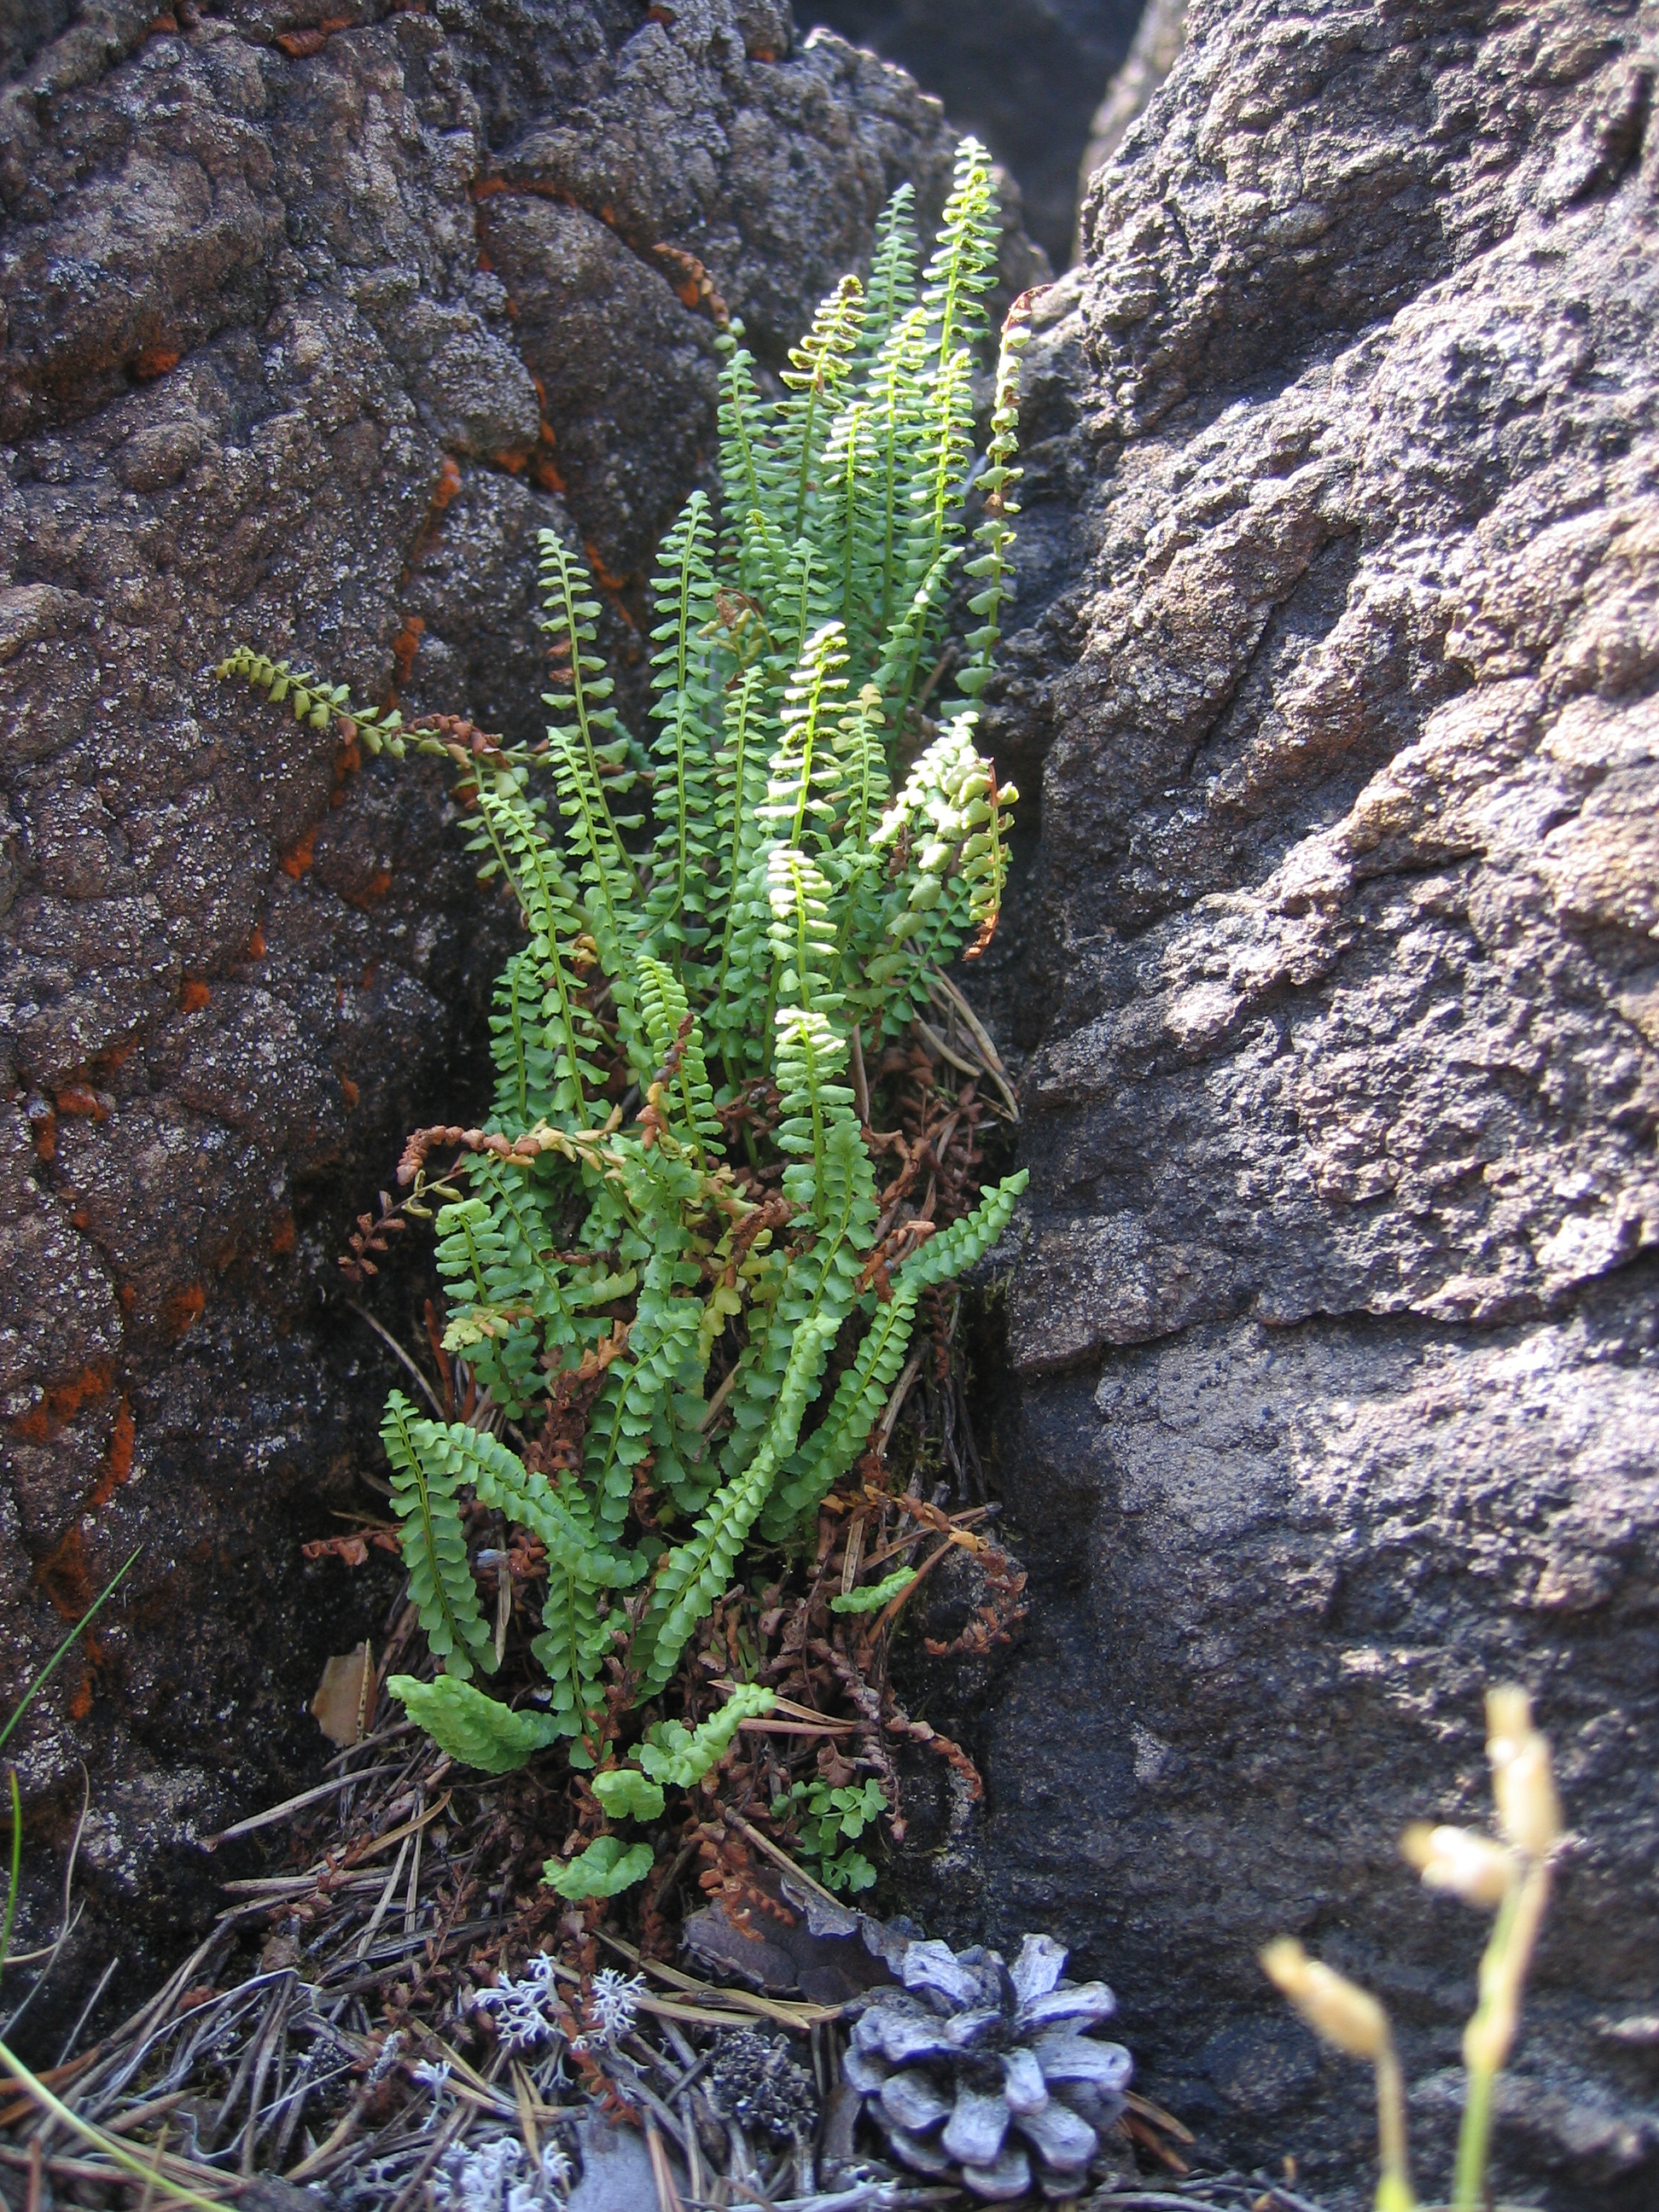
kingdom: Plantae
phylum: Tracheophyta
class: Polypodiopsida
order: Polypodiales
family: Aspleniaceae
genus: Asplenium
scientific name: Asplenium viride
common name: Green spleenwort
